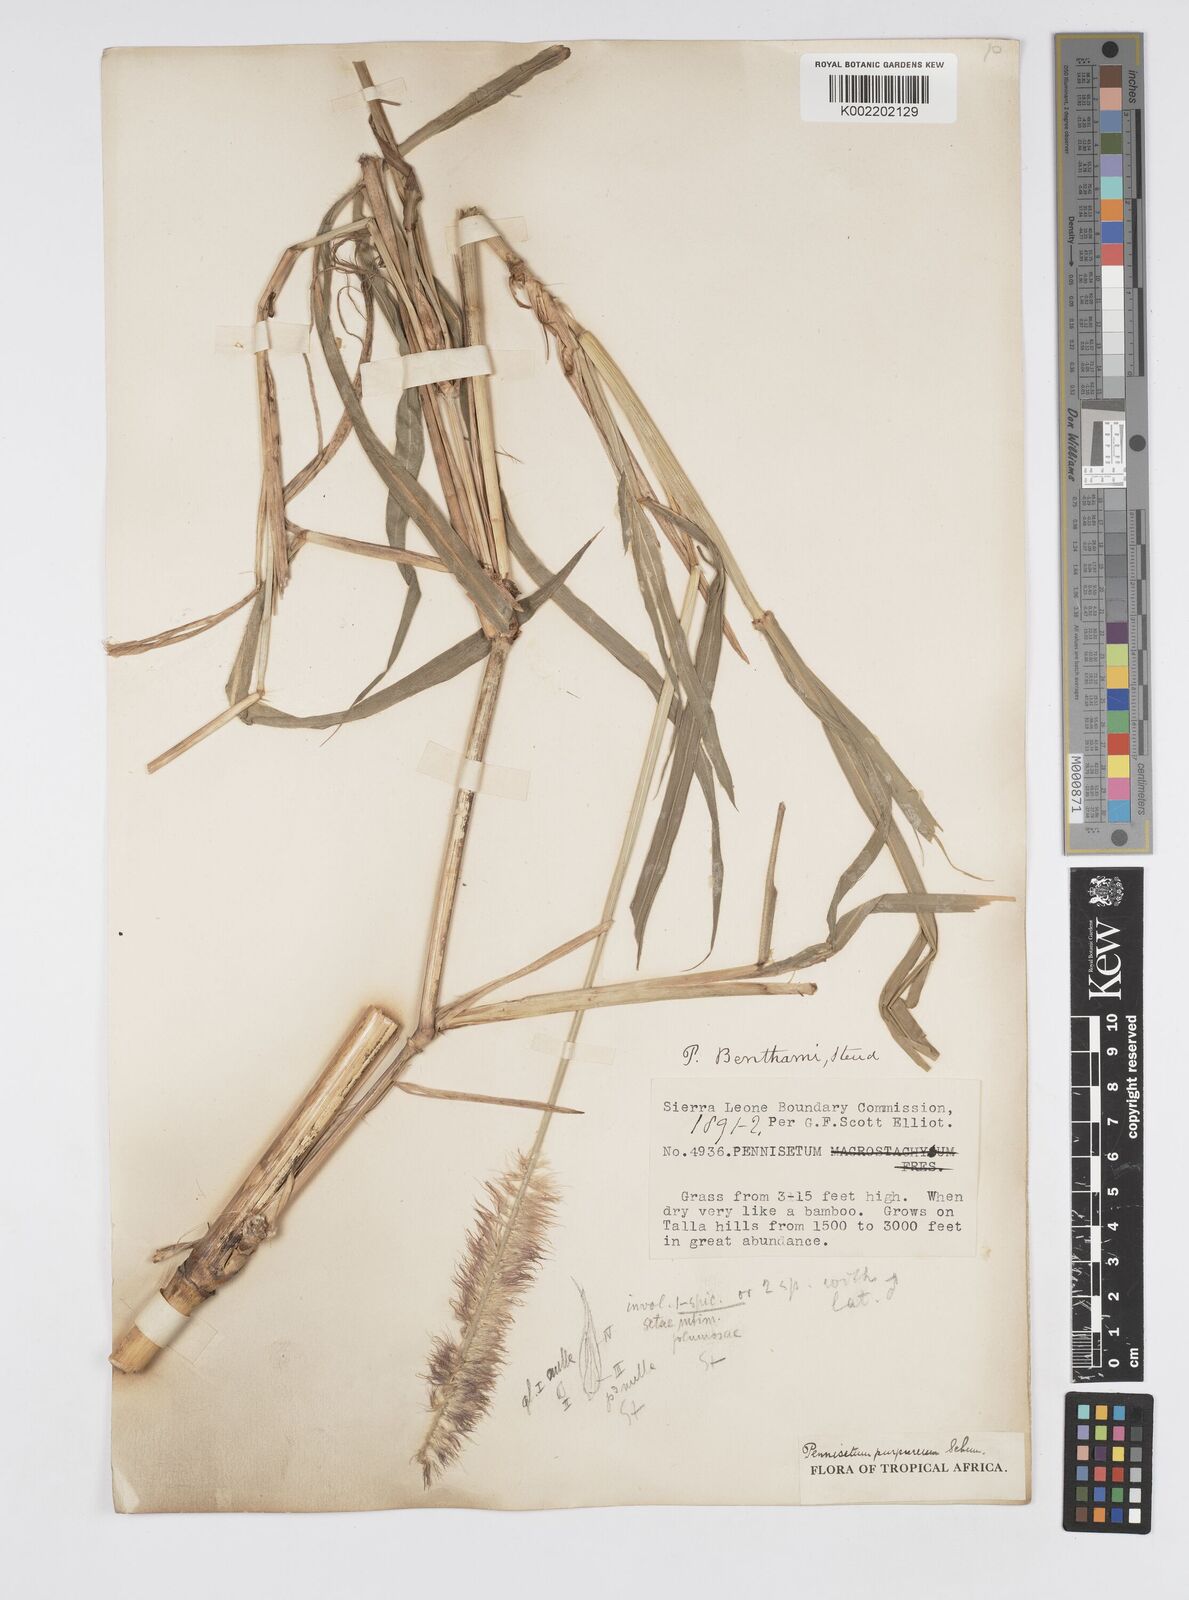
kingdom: Plantae
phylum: Tracheophyta
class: Liliopsida
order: Poales
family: Poaceae
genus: Cenchrus
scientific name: Cenchrus purpureus
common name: Elephant grass
